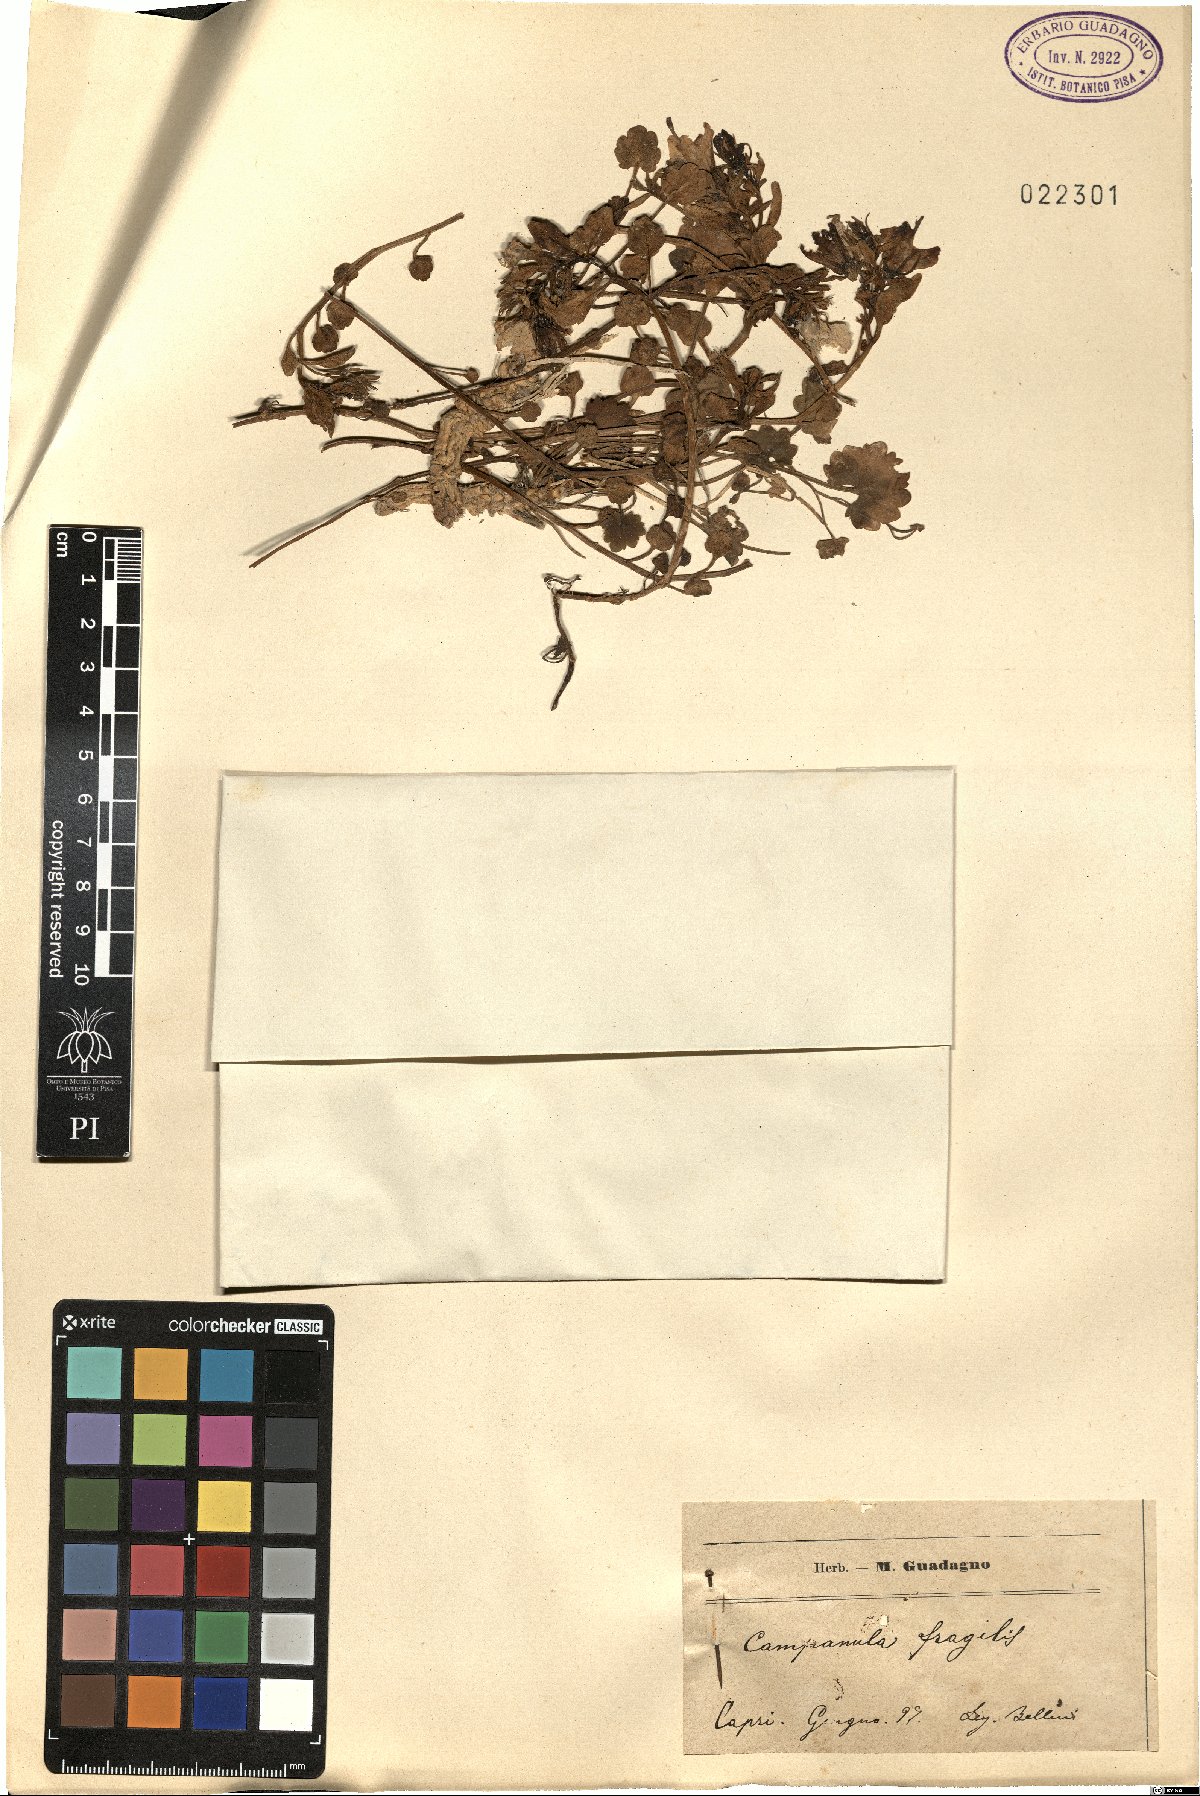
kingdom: Plantae
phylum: Tracheophyta
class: Magnoliopsida
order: Asterales
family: Campanulaceae
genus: Campanula
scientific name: Campanula fragilis
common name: Italian bellflower
